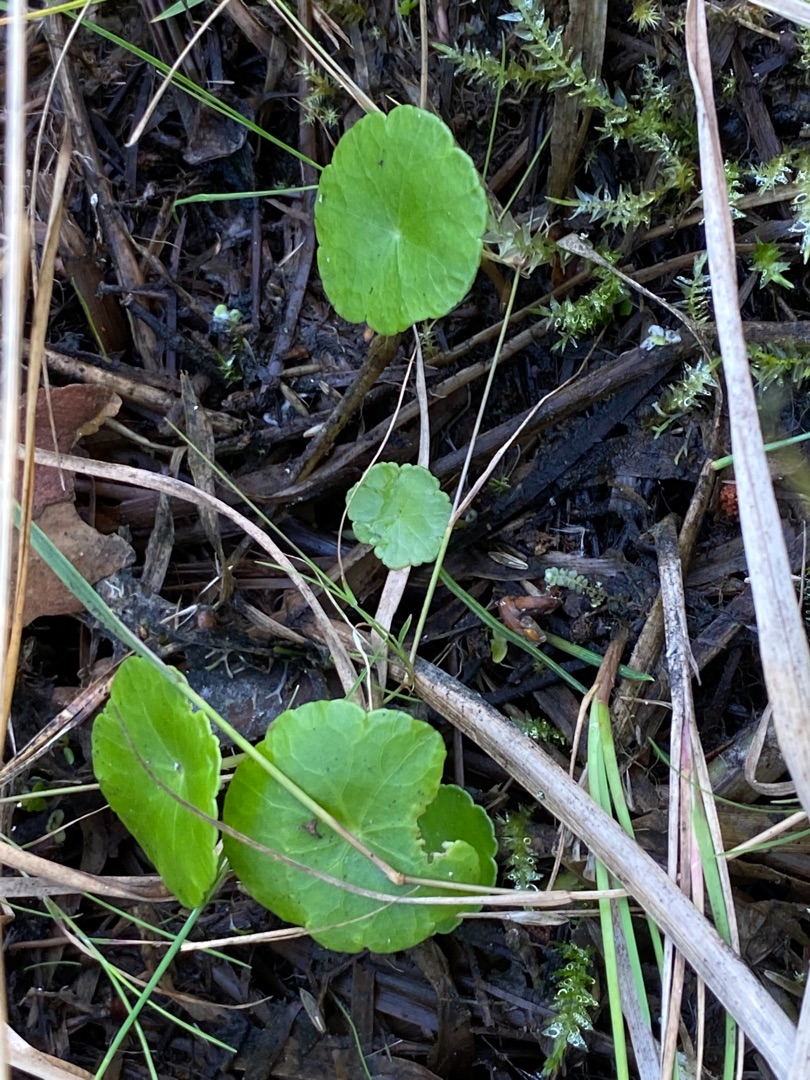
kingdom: Plantae
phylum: Tracheophyta
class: Magnoliopsida
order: Apiales
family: Araliaceae
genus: Hydrocotyle
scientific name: Hydrocotyle vulgaris
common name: Vandnavle
